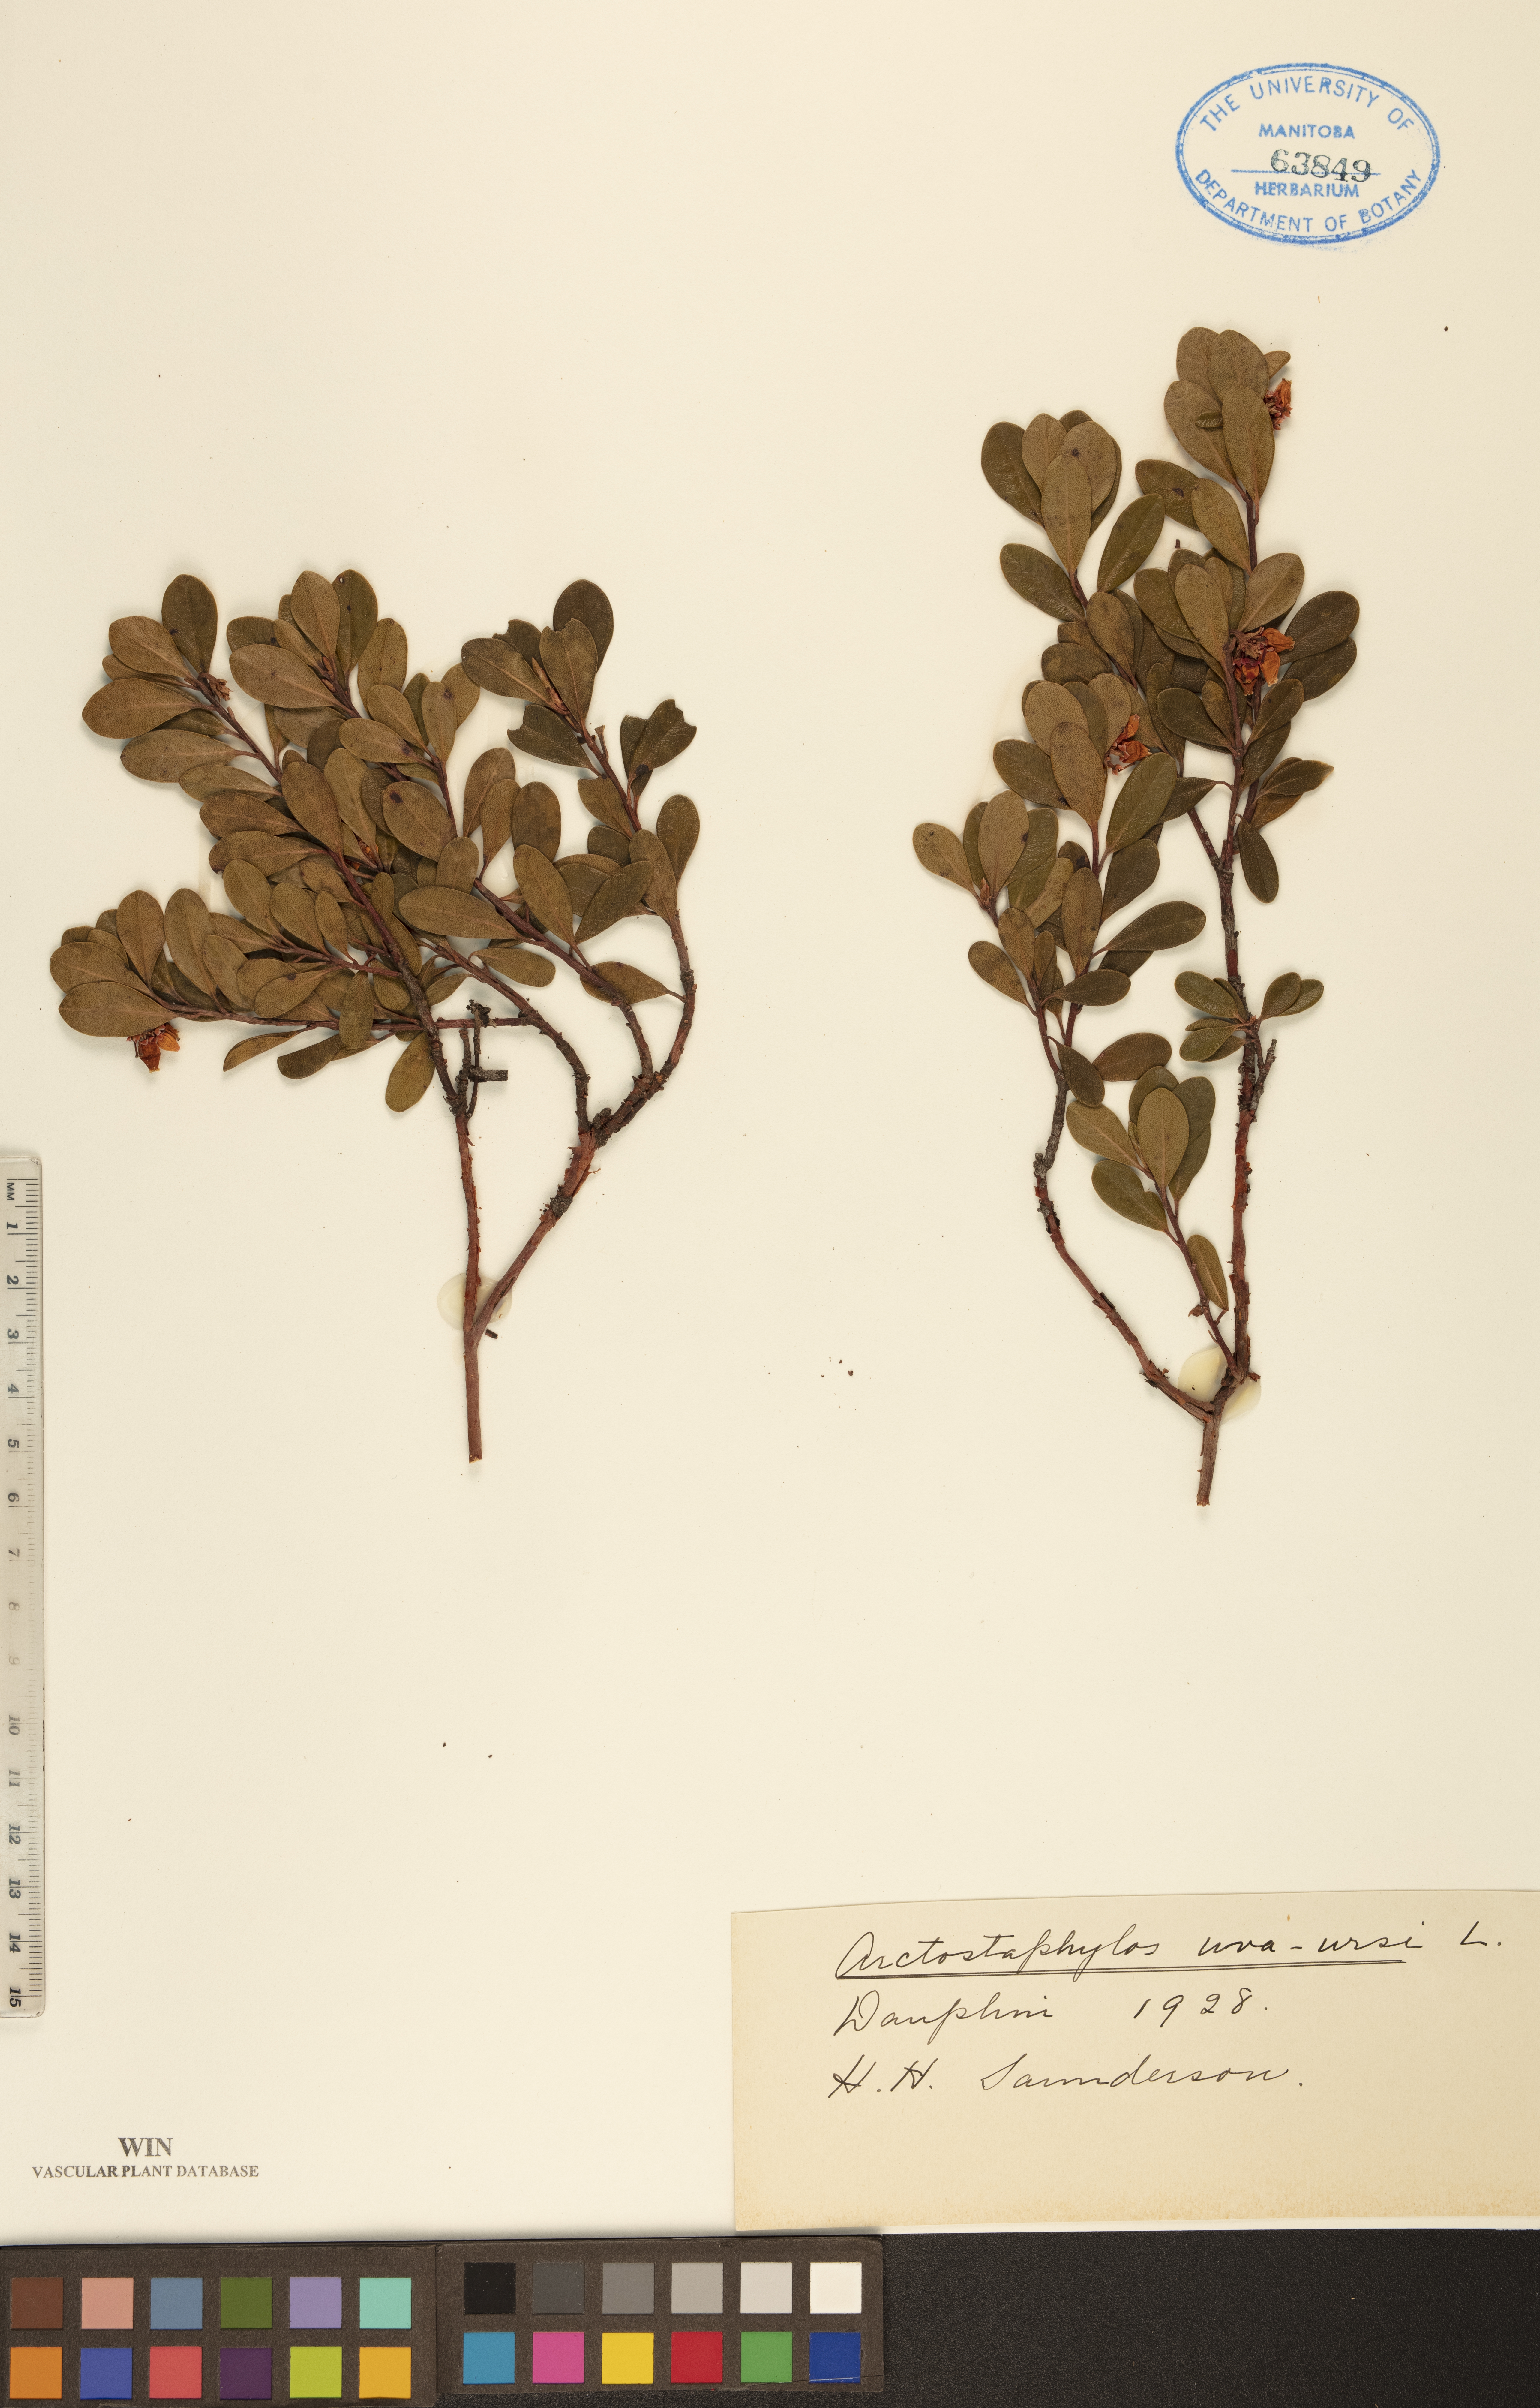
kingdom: Plantae
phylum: Tracheophyta
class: Magnoliopsida
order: Ericales
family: Ericaceae
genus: Arctostaphylos
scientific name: Arctostaphylos uva-ursi
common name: Bearberry
